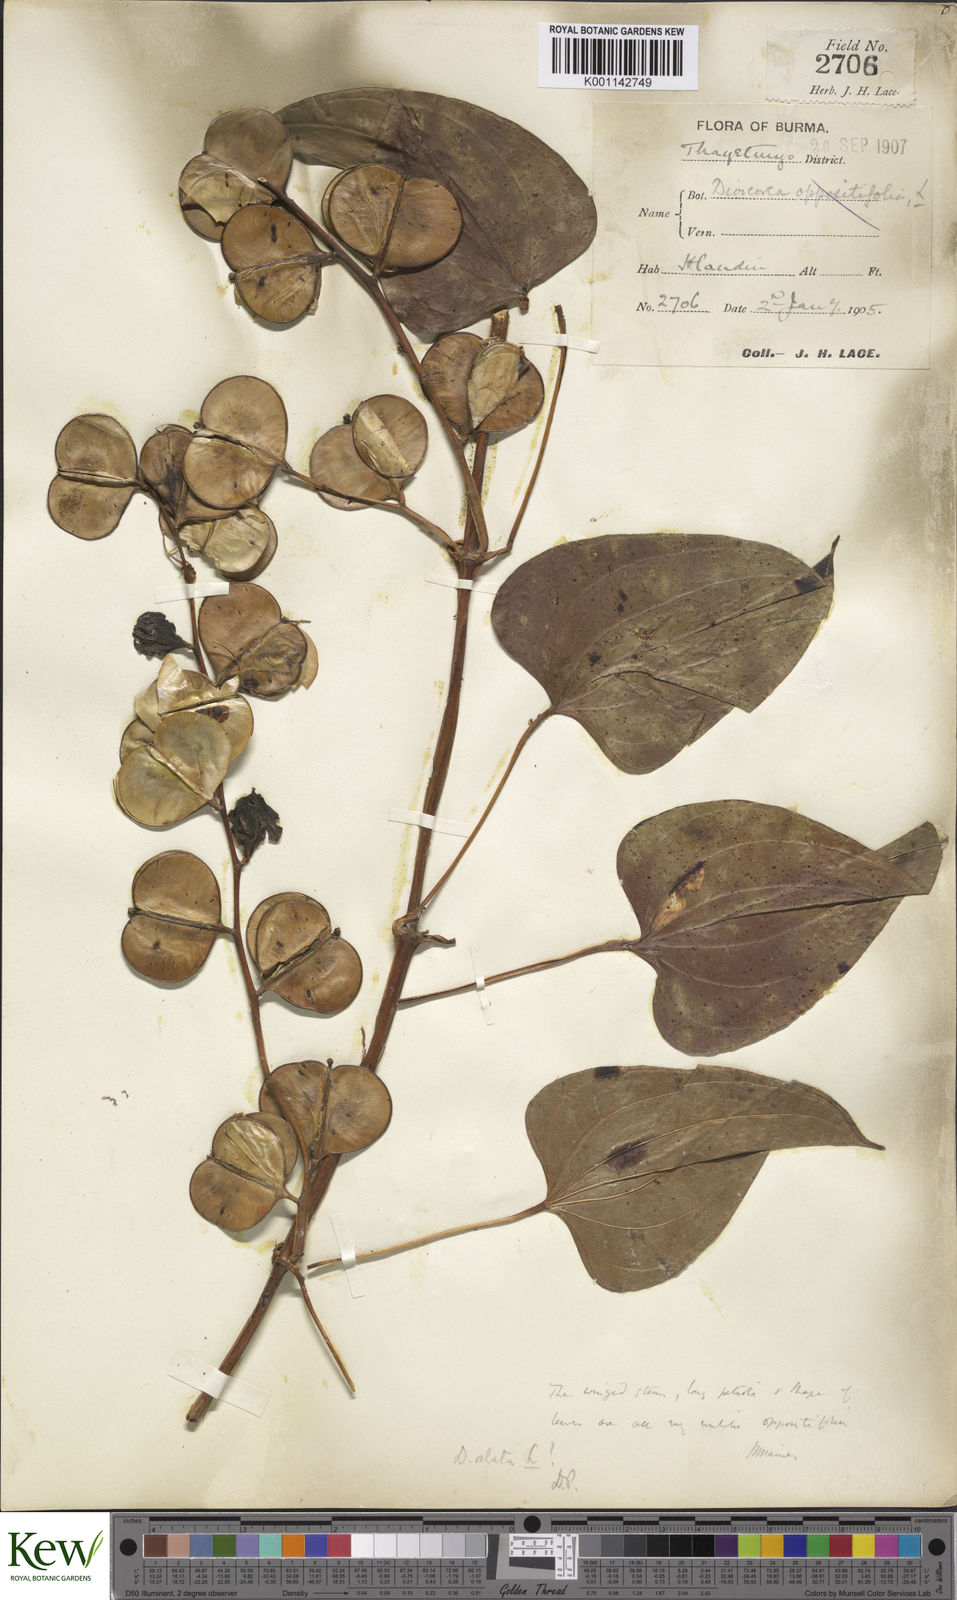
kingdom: Plantae
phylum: Tracheophyta
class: Liliopsida
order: Dioscoreales
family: Dioscoreaceae
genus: Dioscorea
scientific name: Dioscorea alata
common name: Water yam
